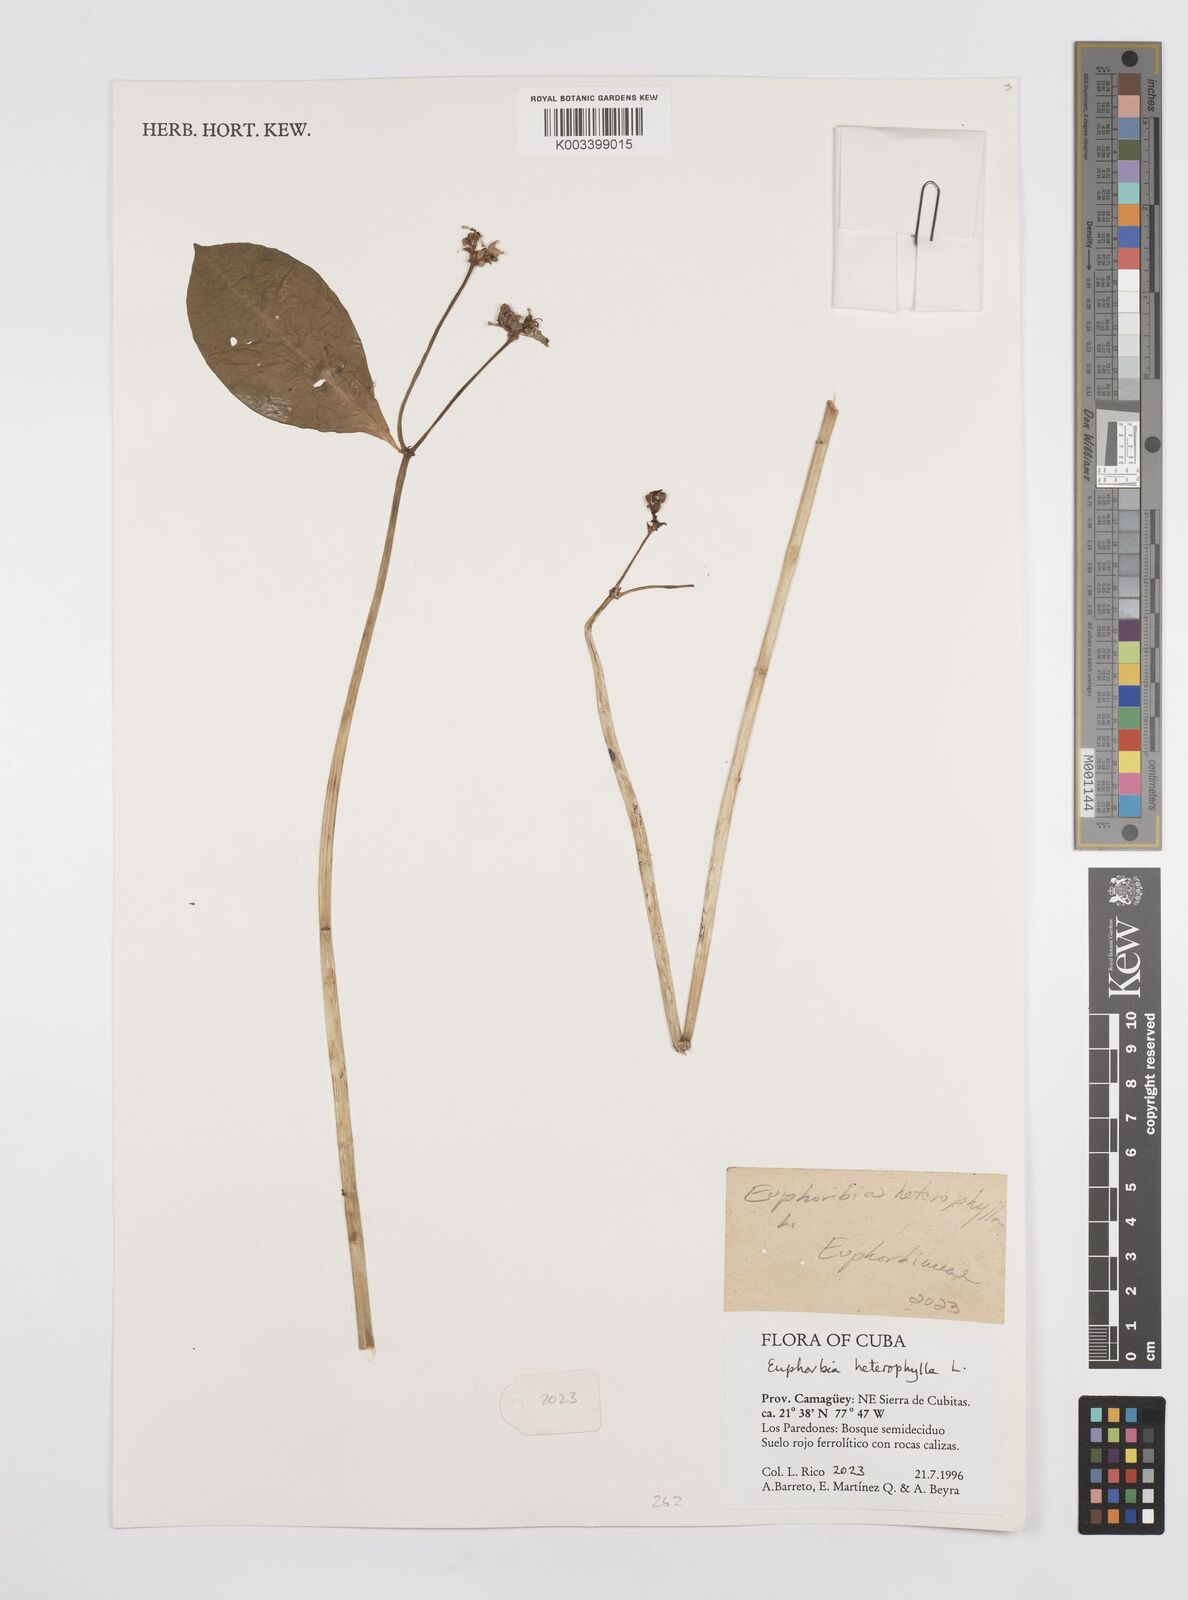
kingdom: Plantae
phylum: Tracheophyta
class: Magnoliopsida
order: Malpighiales
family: Euphorbiaceae
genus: Euphorbia
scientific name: Euphorbia heterophylla
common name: Mexican fireplant
